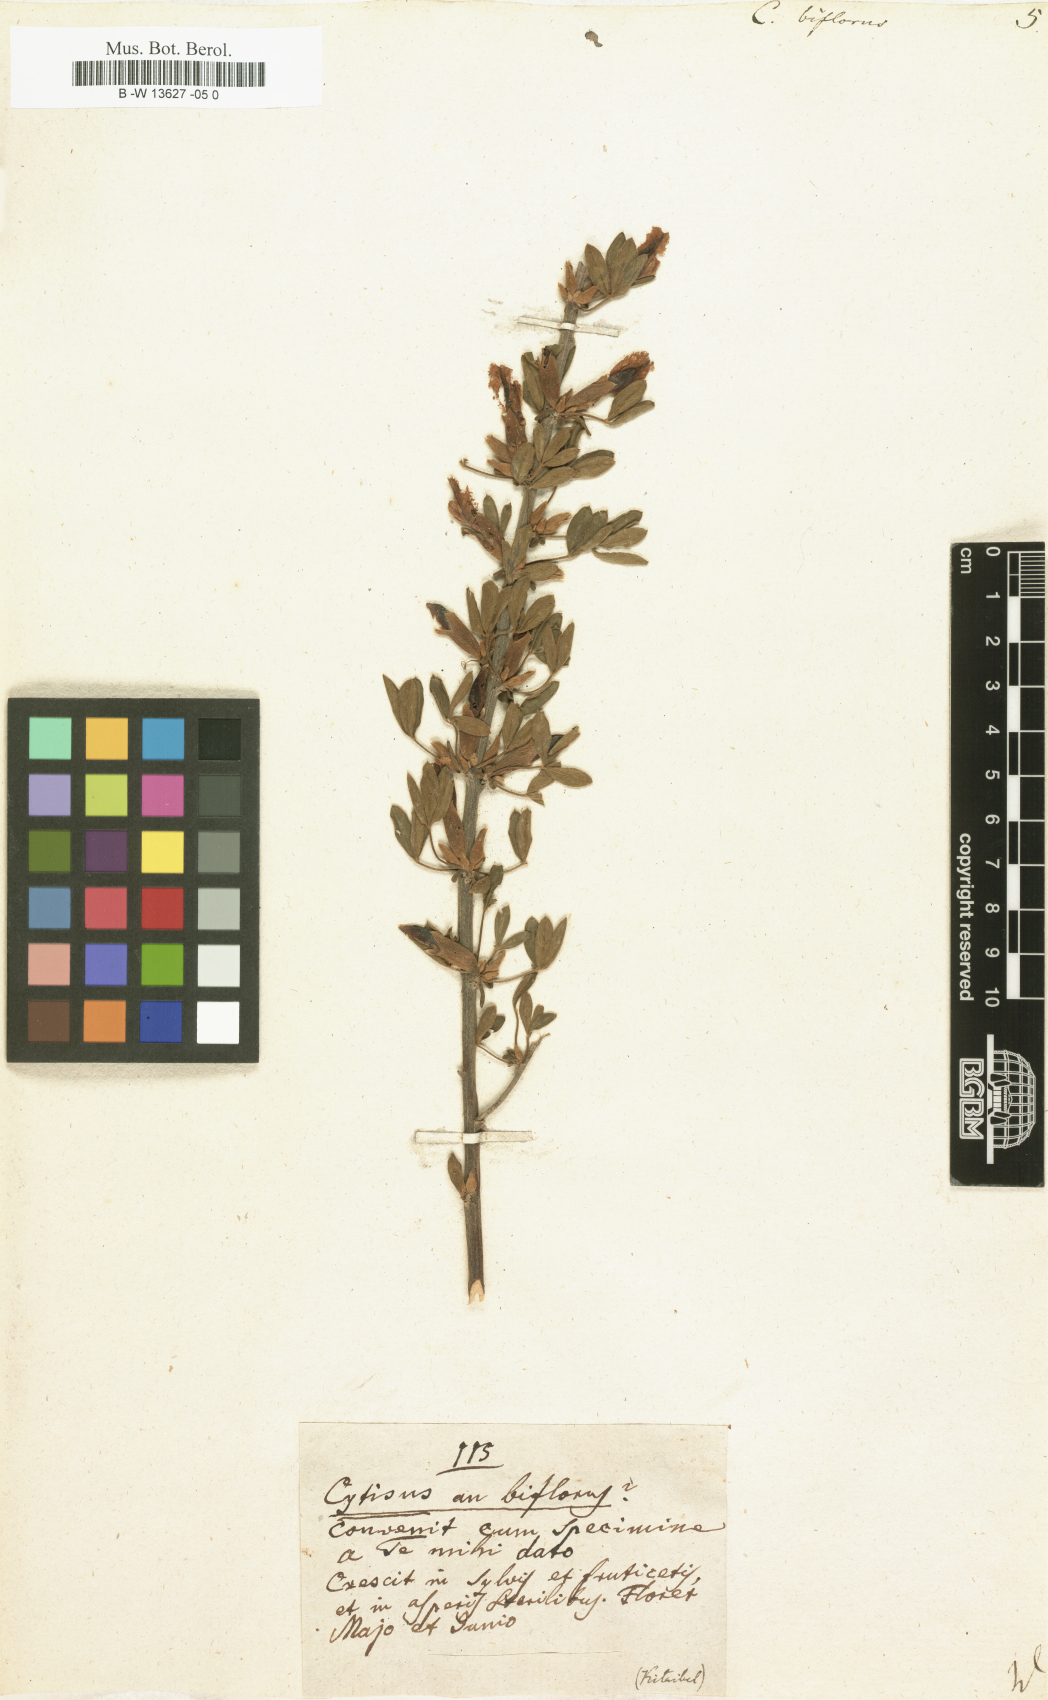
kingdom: Plantae
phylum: Tracheophyta
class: Magnoliopsida
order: Fabales
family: Fabaceae
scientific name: Fabaceae
